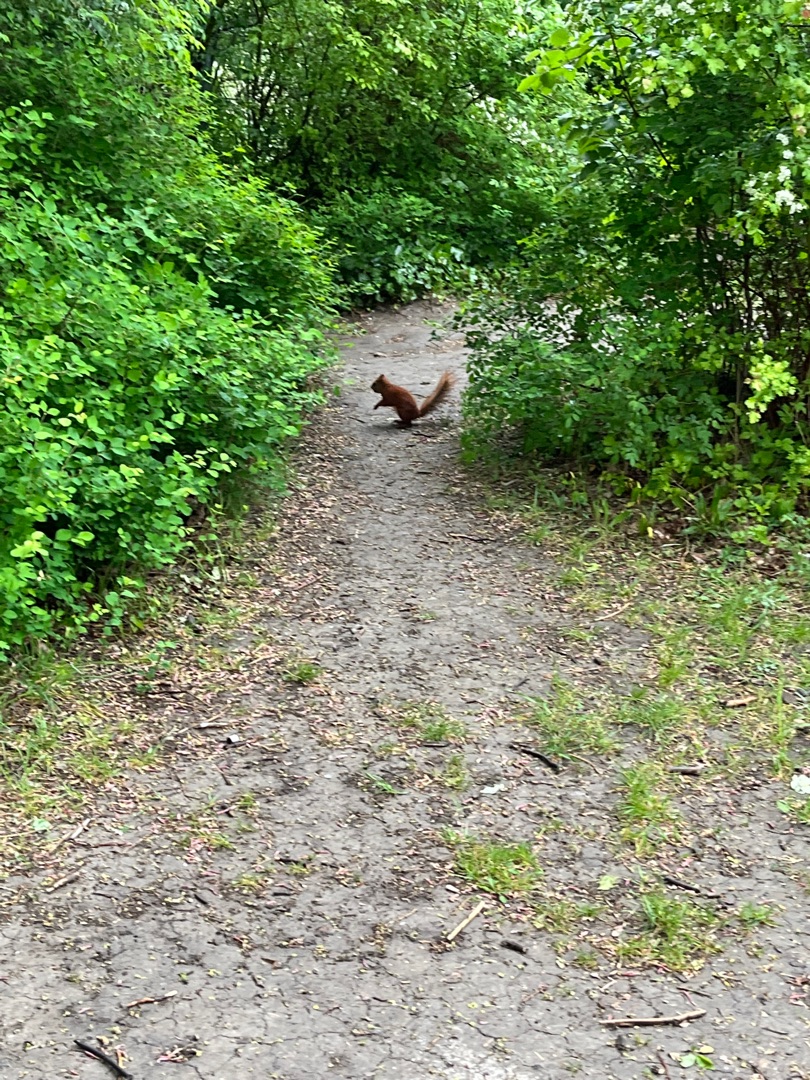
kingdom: Animalia
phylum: Chordata
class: Mammalia
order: Rodentia
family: Sciuridae
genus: Sciurus
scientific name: Sciurus vulgaris
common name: Egern
